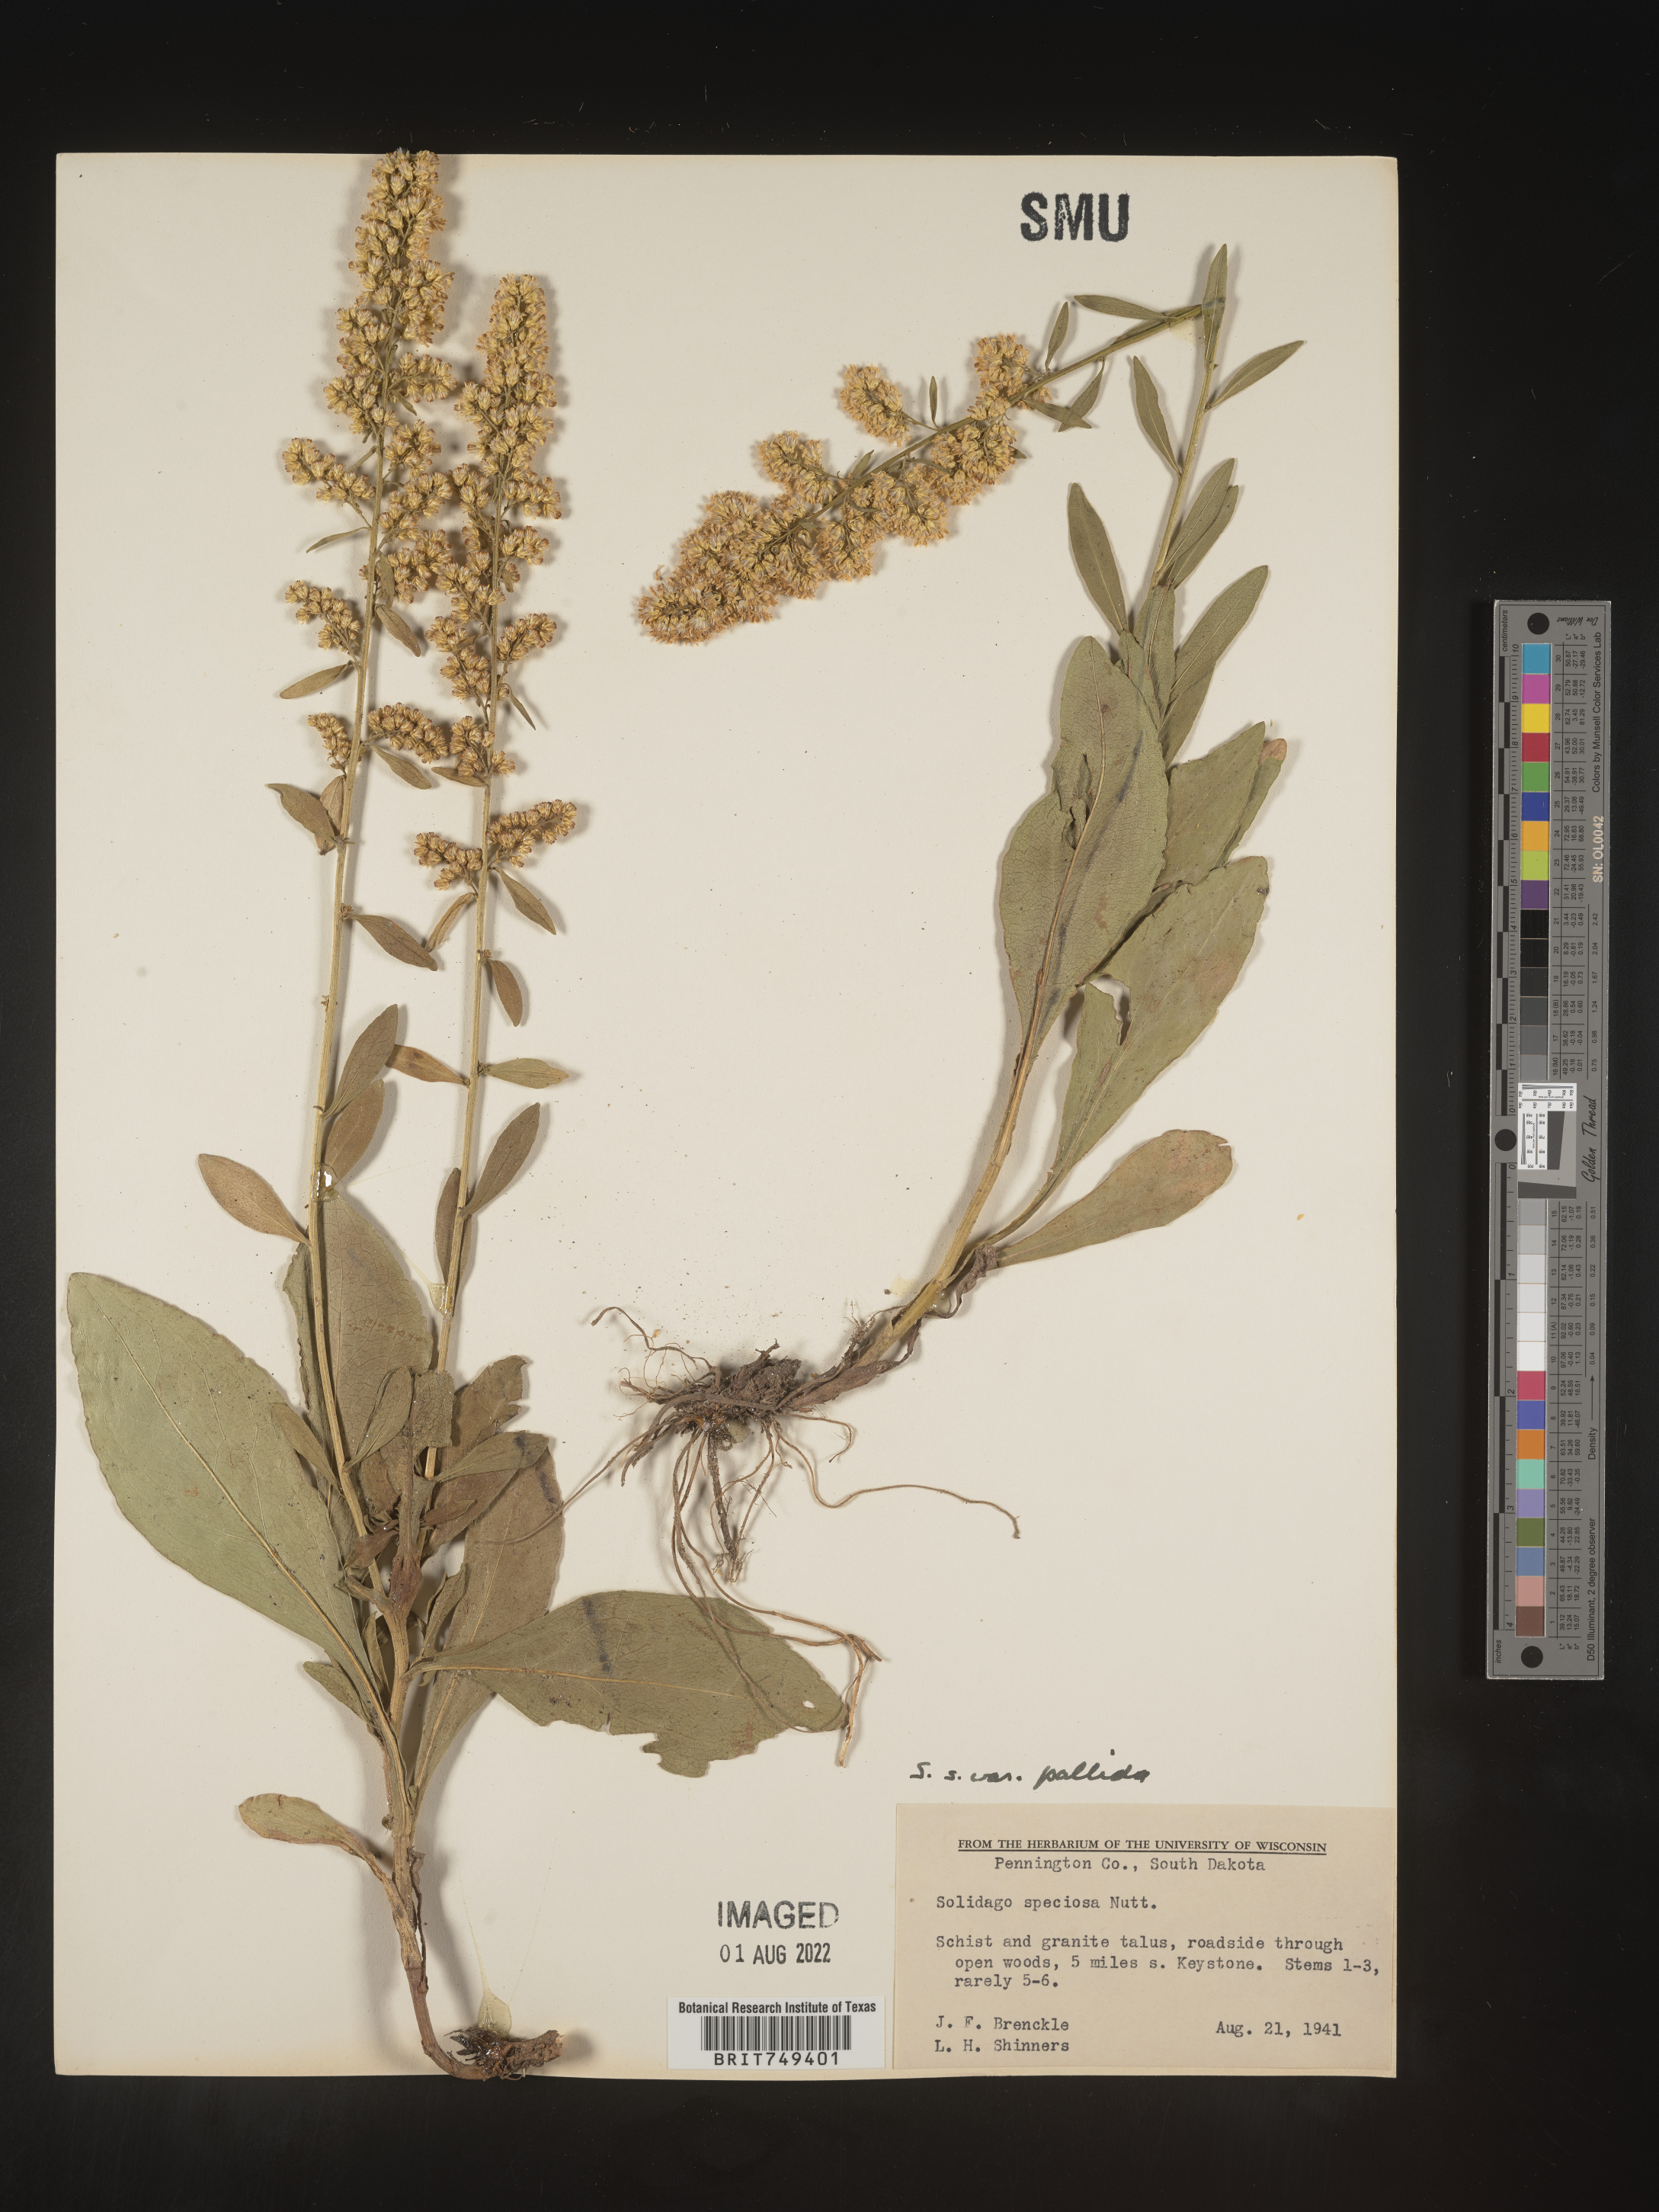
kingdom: Plantae
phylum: Tracheophyta
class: Magnoliopsida
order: Asterales
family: Asteraceae
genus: Solidago
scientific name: Solidago pallida
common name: Pale showy goldenrod
